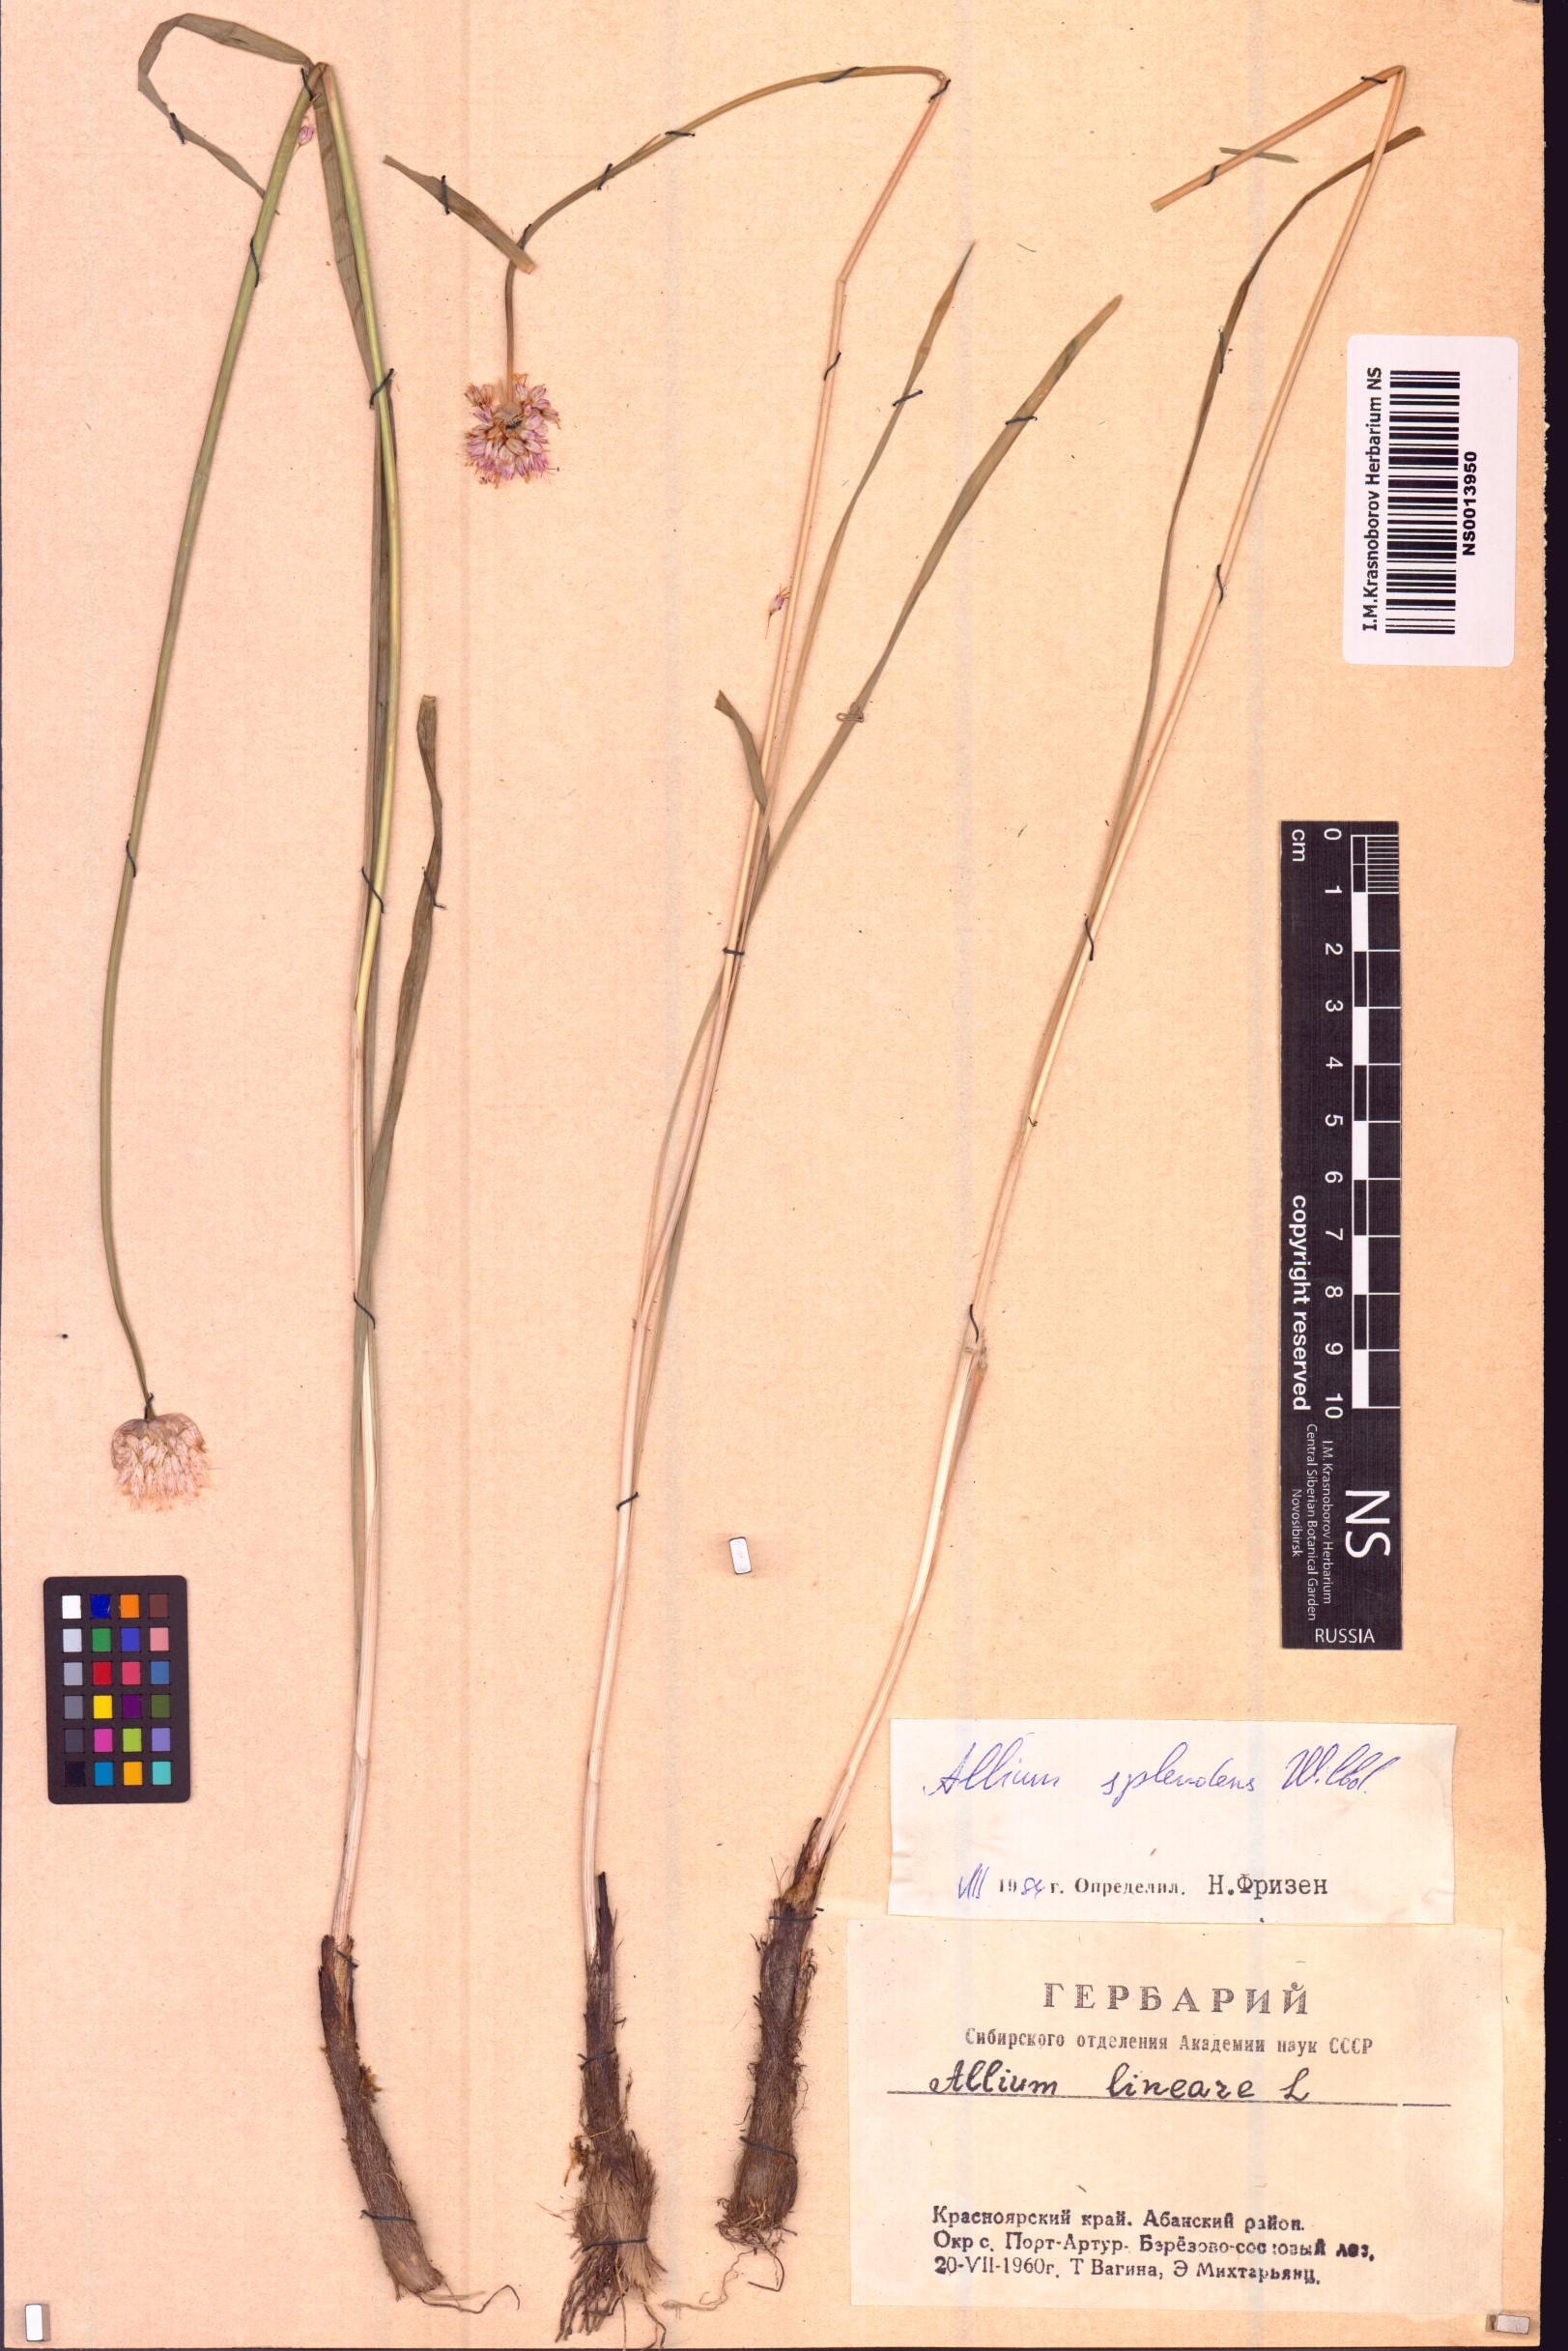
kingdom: Plantae
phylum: Tracheophyta
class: Liliopsida
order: Asparagales
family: Amaryllidaceae
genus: Allium
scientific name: Allium splendens
